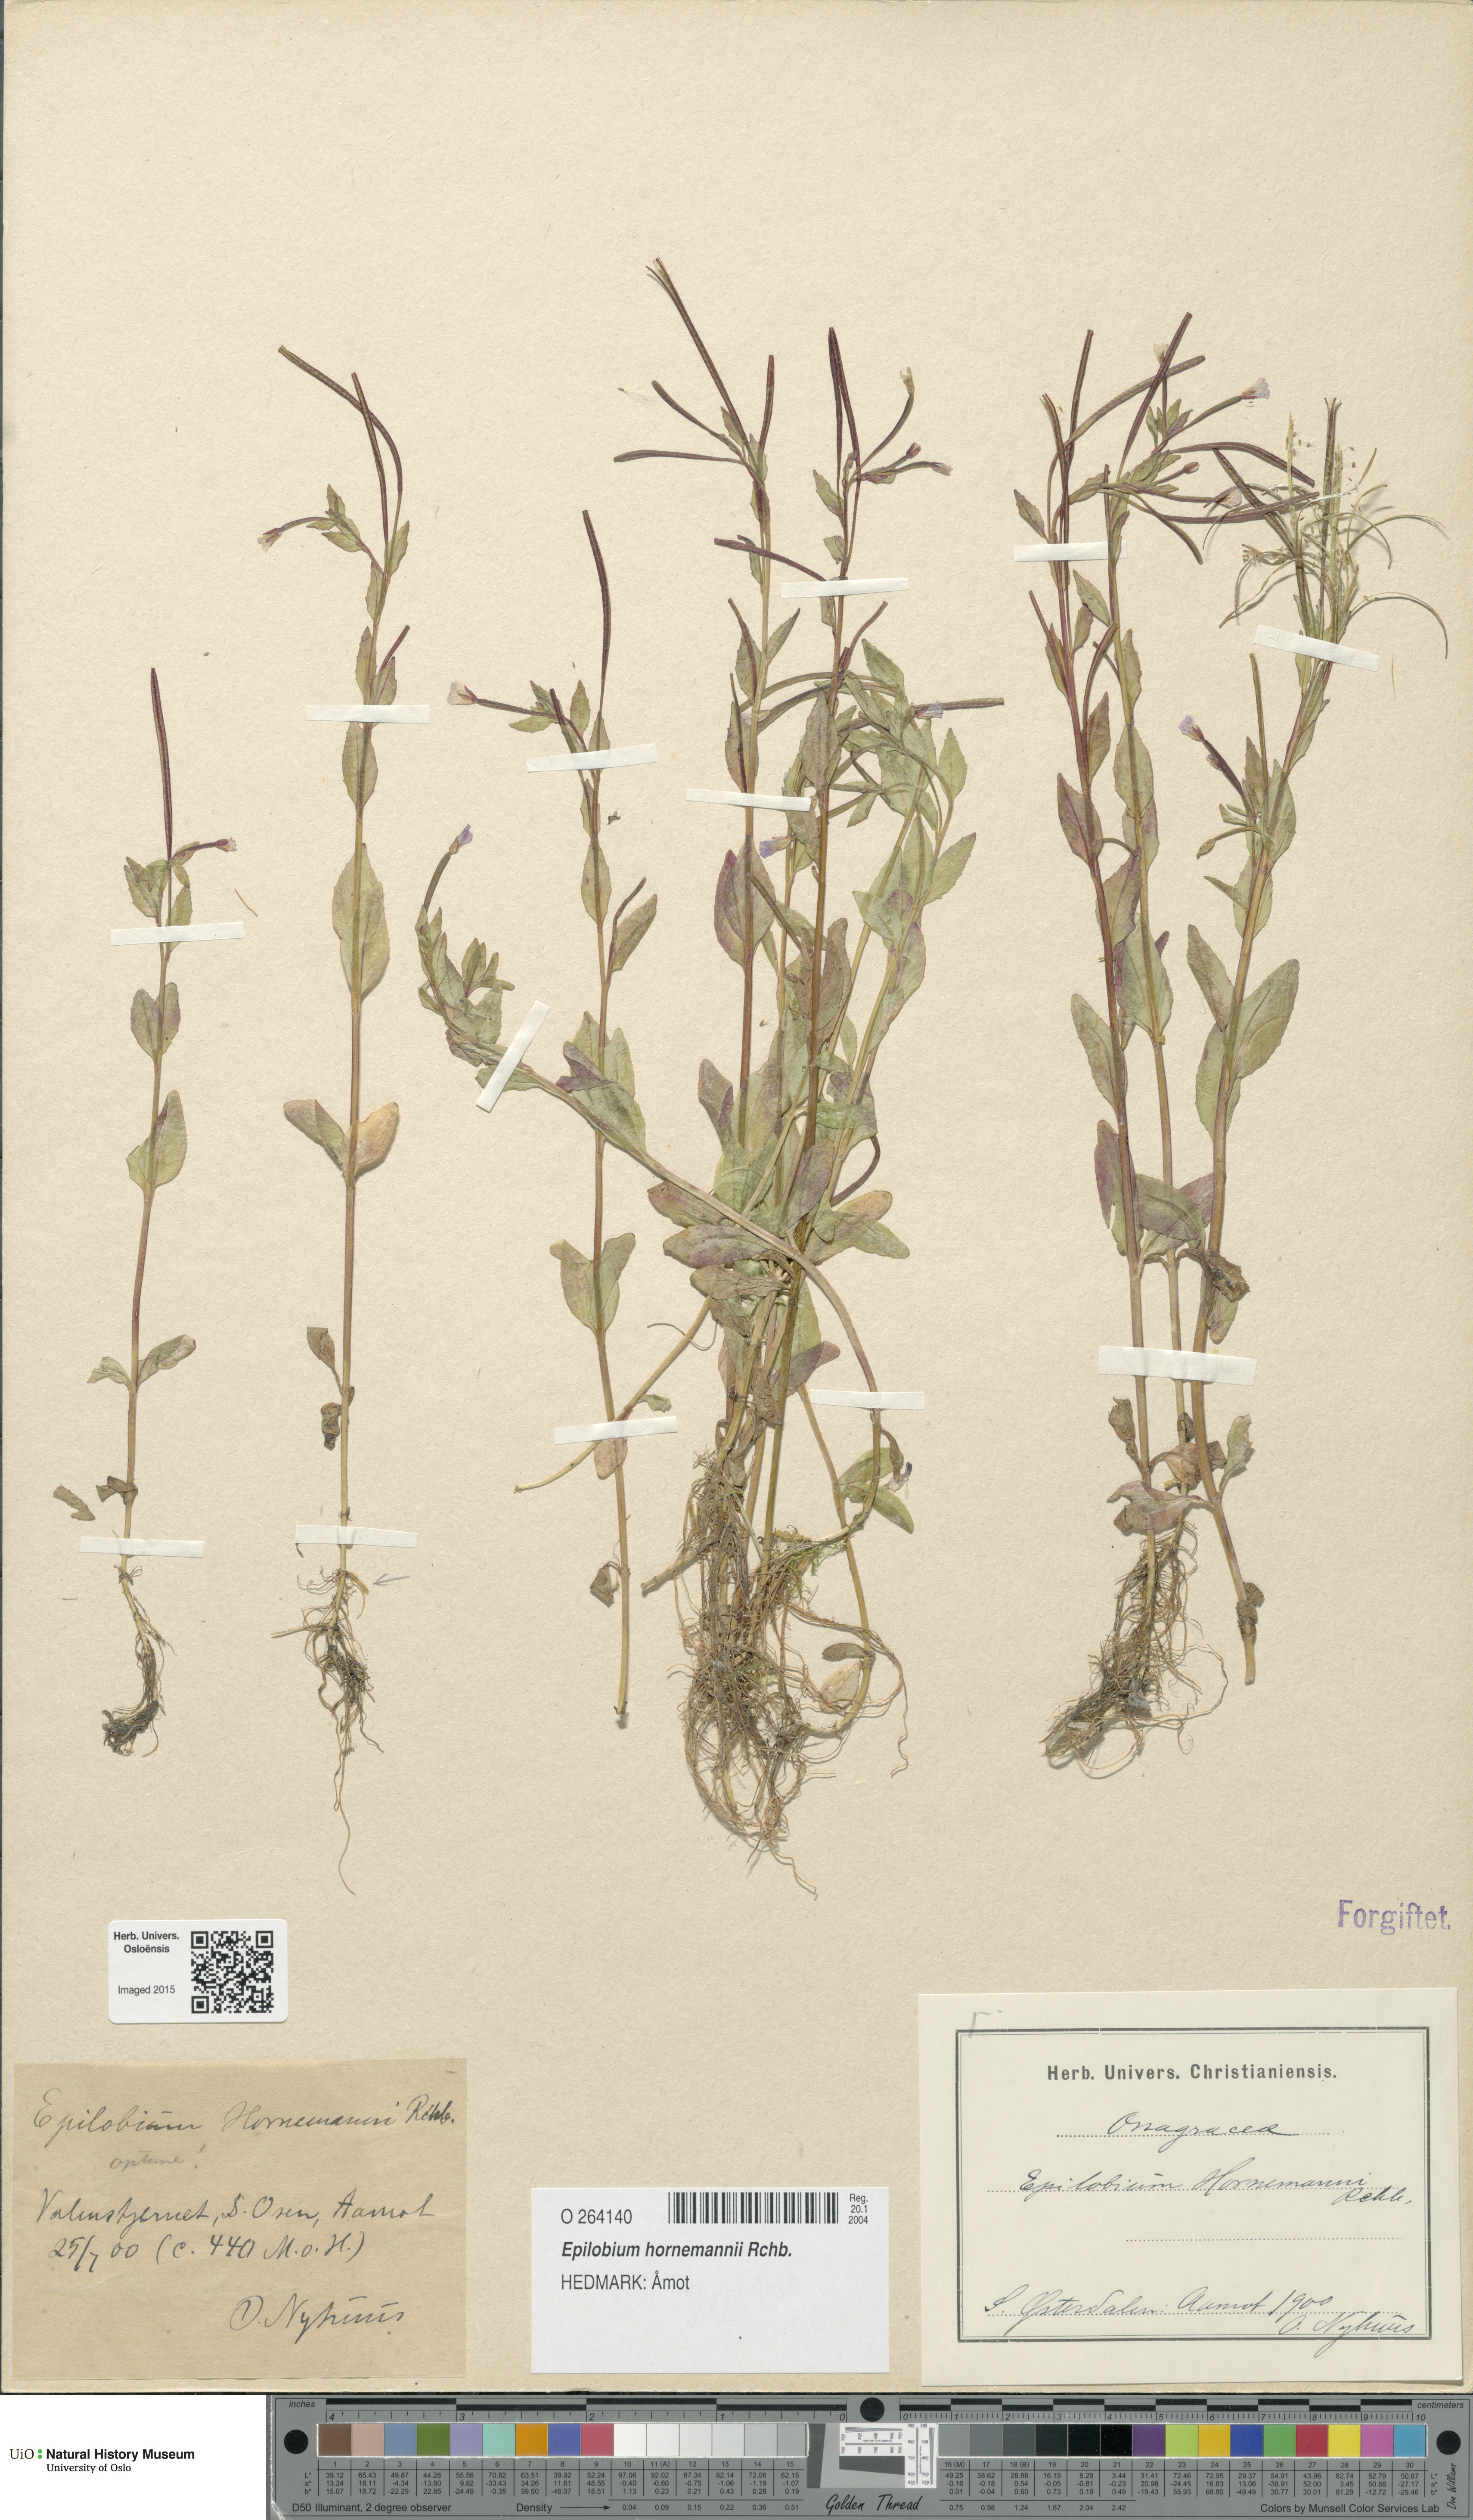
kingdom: Plantae
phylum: Tracheophyta
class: Magnoliopsida
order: Myrtales
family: Onagraceae
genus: Epilobium
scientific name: Epilobium hornemannii
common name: Hornemann's willowherb
